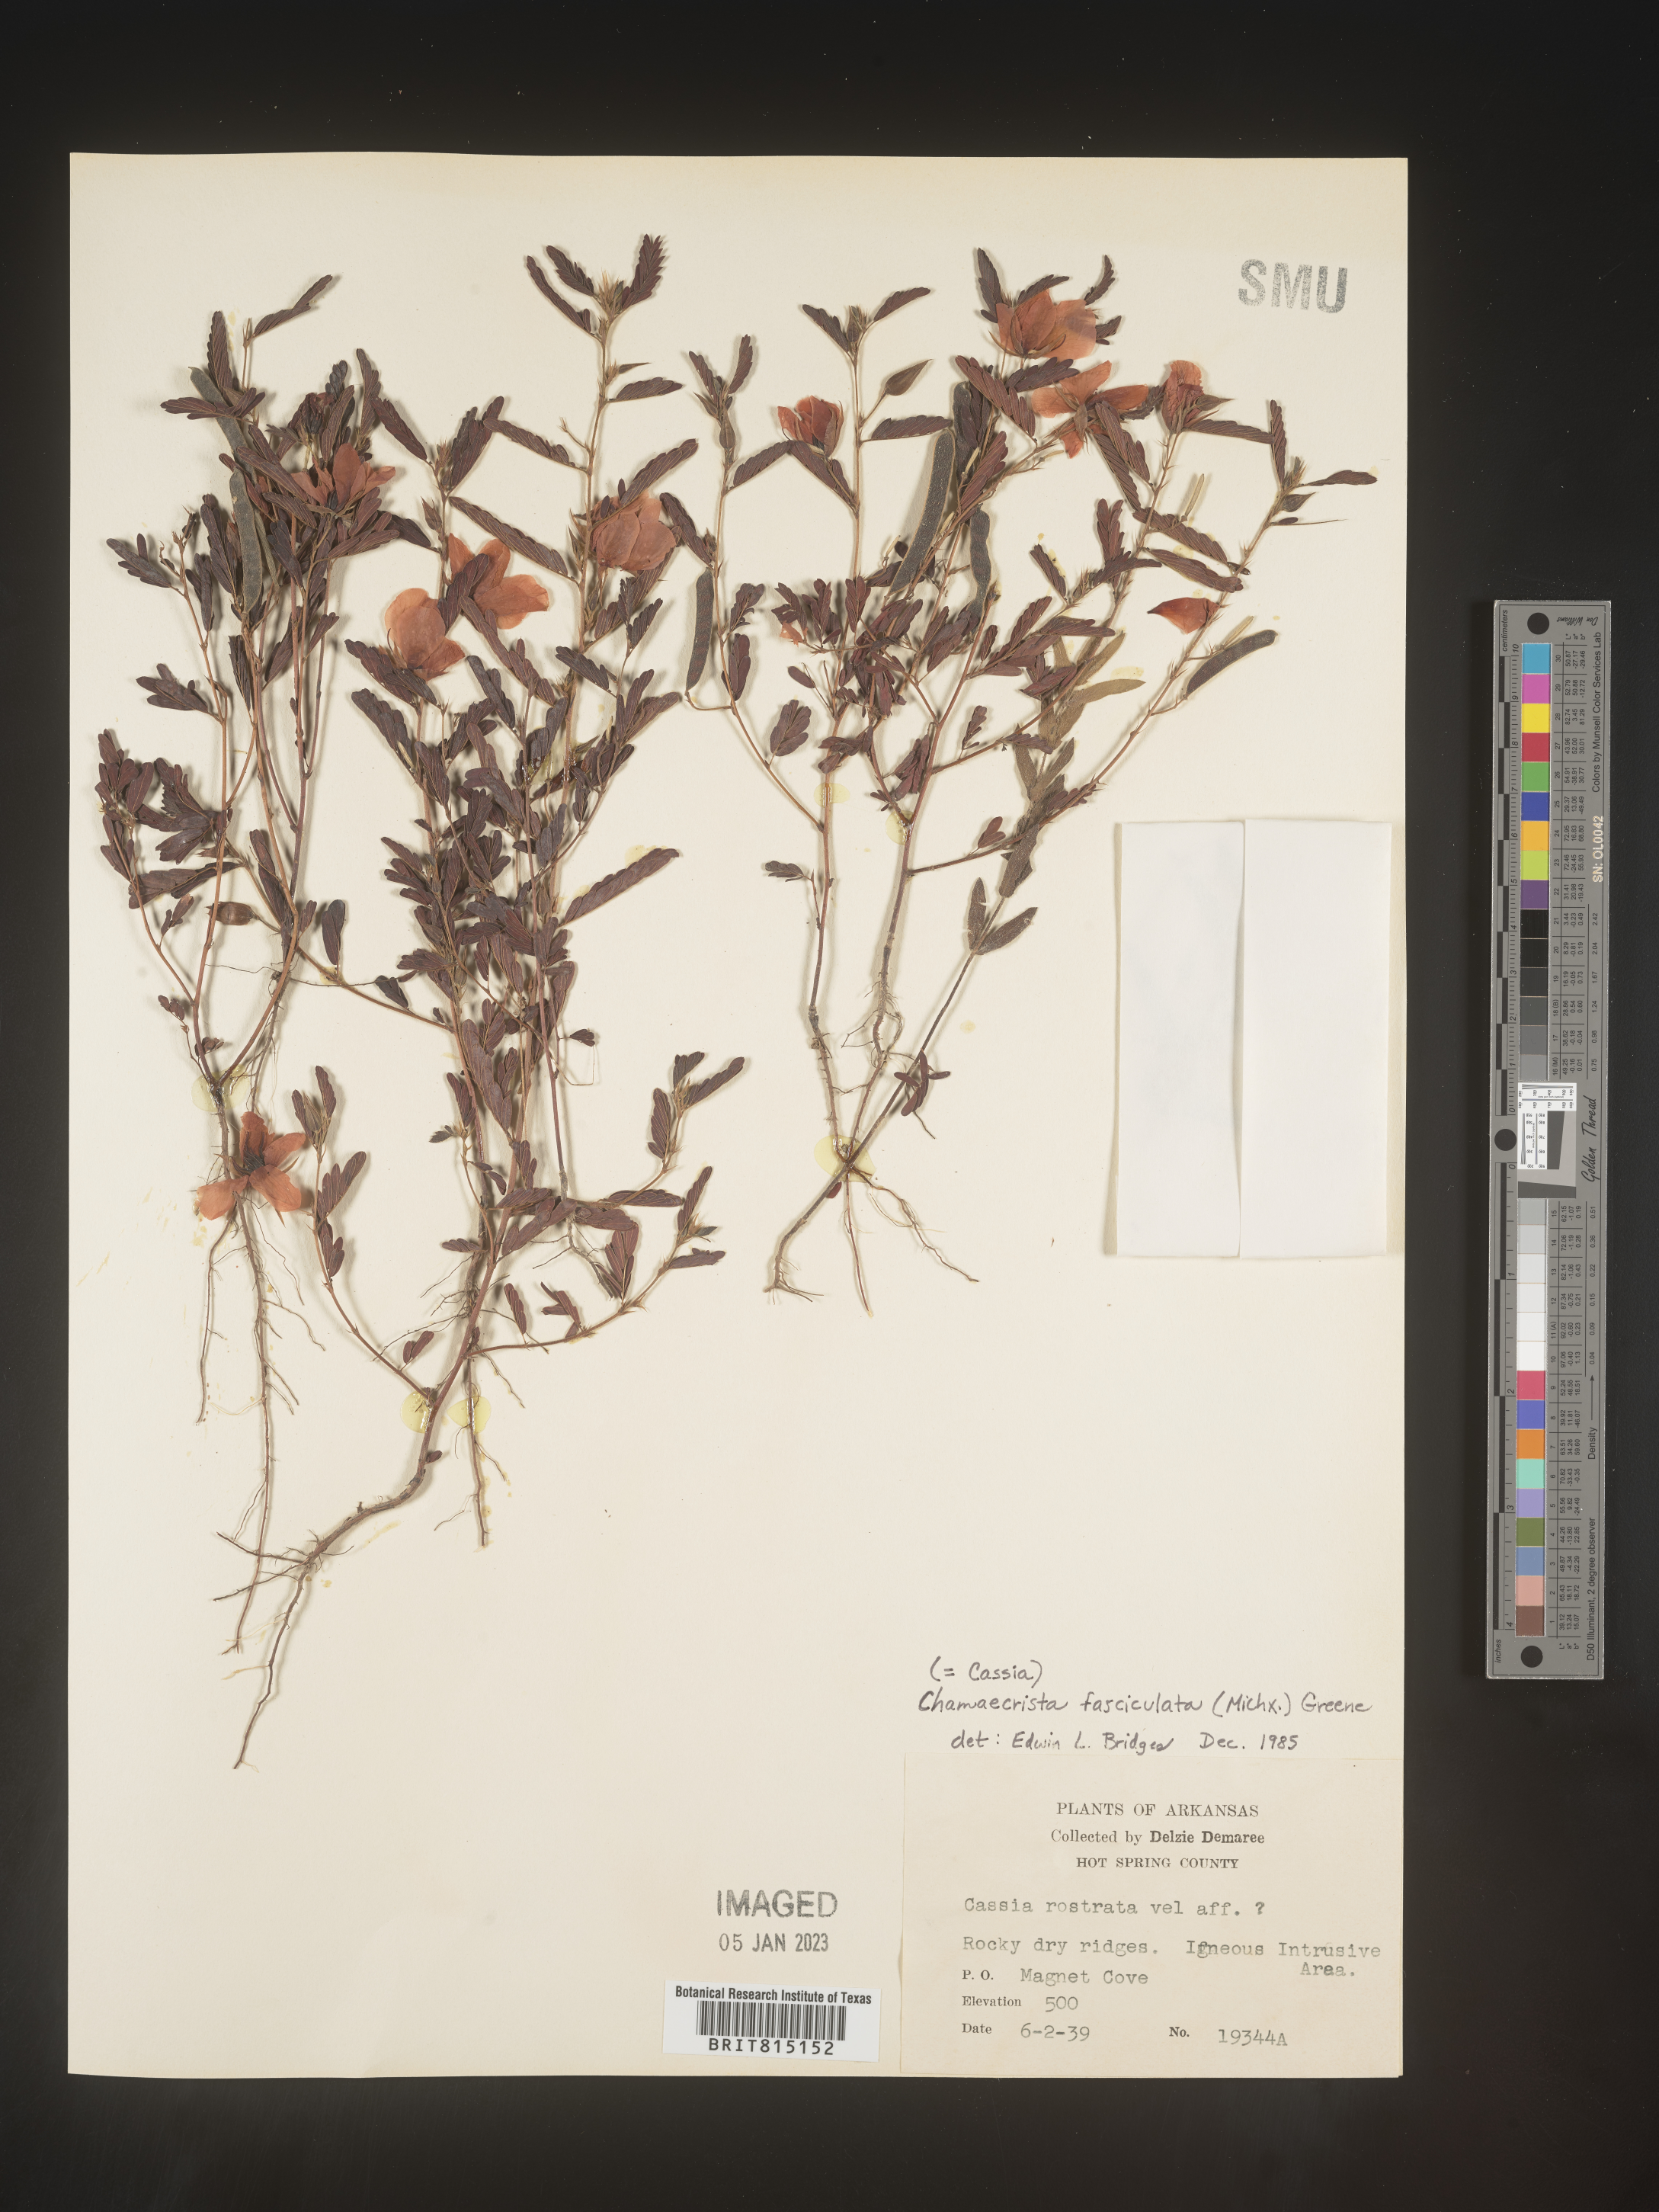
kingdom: Plantae
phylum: Tracheophyta
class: Magnoliopsida
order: Fabales
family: Fabaceae
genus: Chamaecrista
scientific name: Chamaecrista fasciculata
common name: Golden cassia
